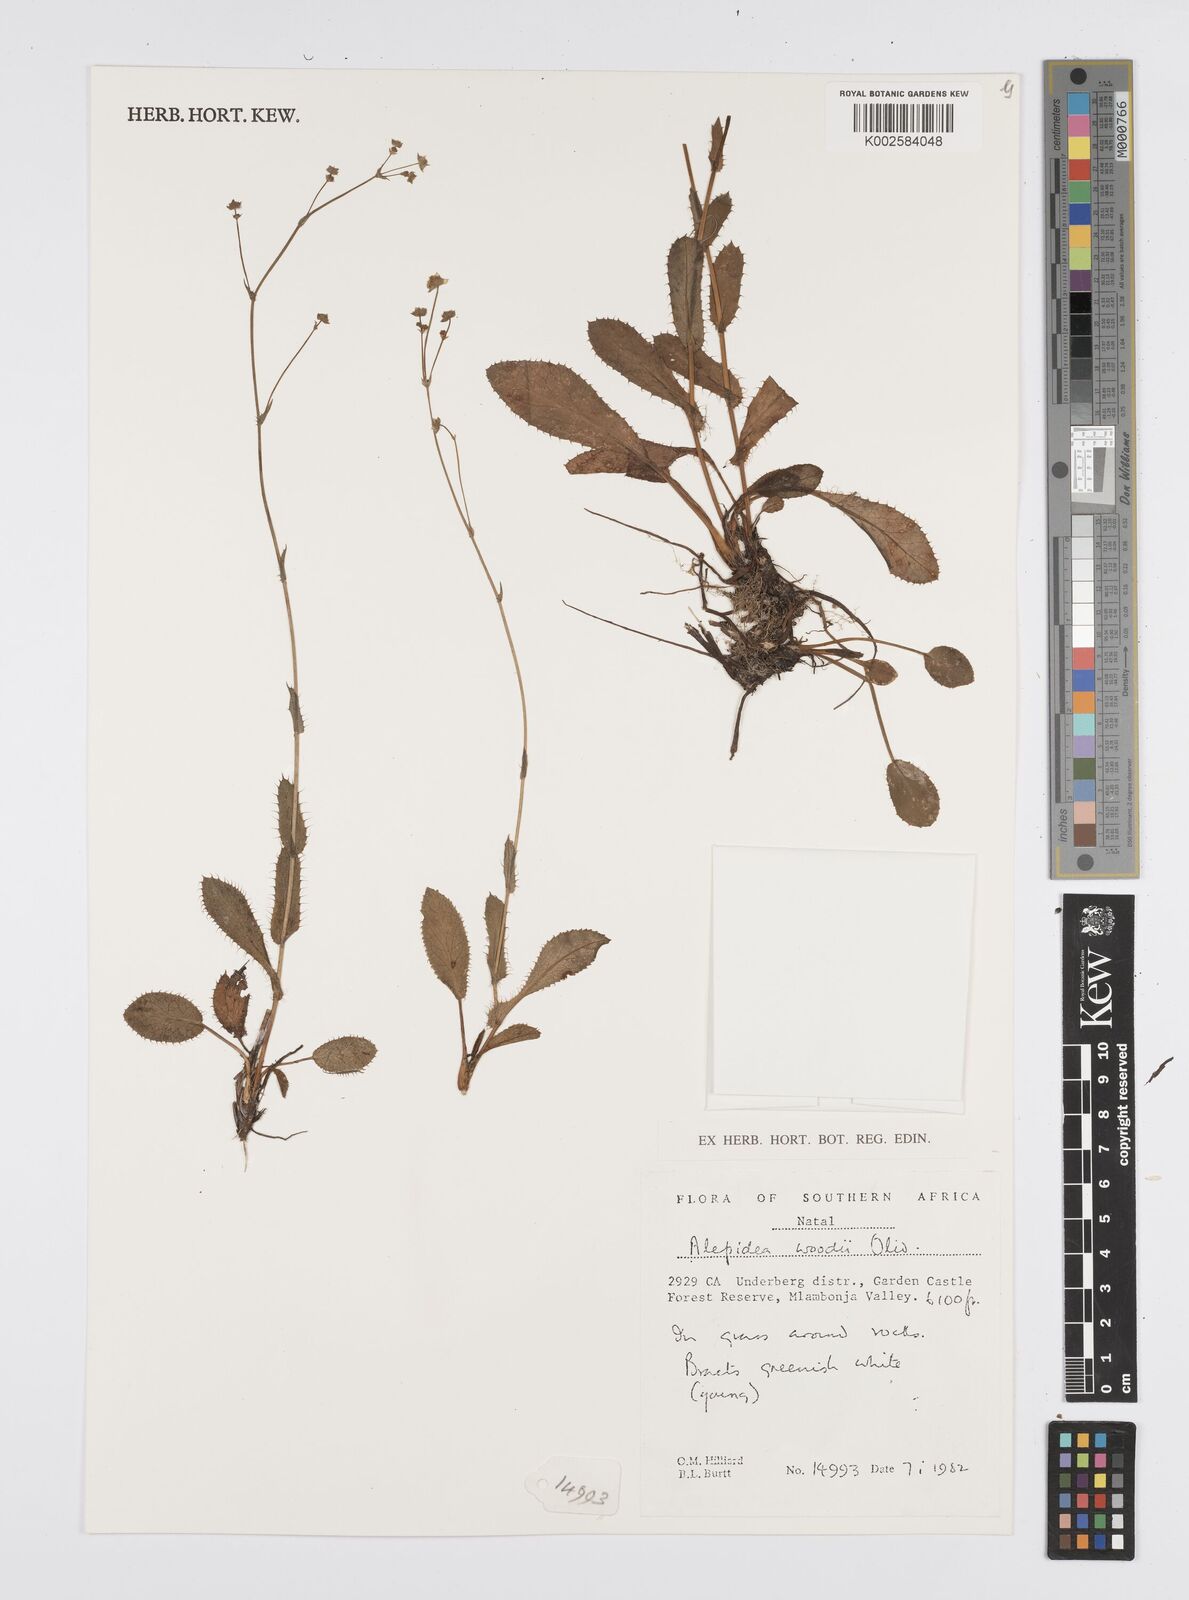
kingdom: Plantae
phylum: Tracheophyta
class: Magnoliopsida
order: Apiales
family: Apiaceae
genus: Alepidea
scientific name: Alepidea woodii
